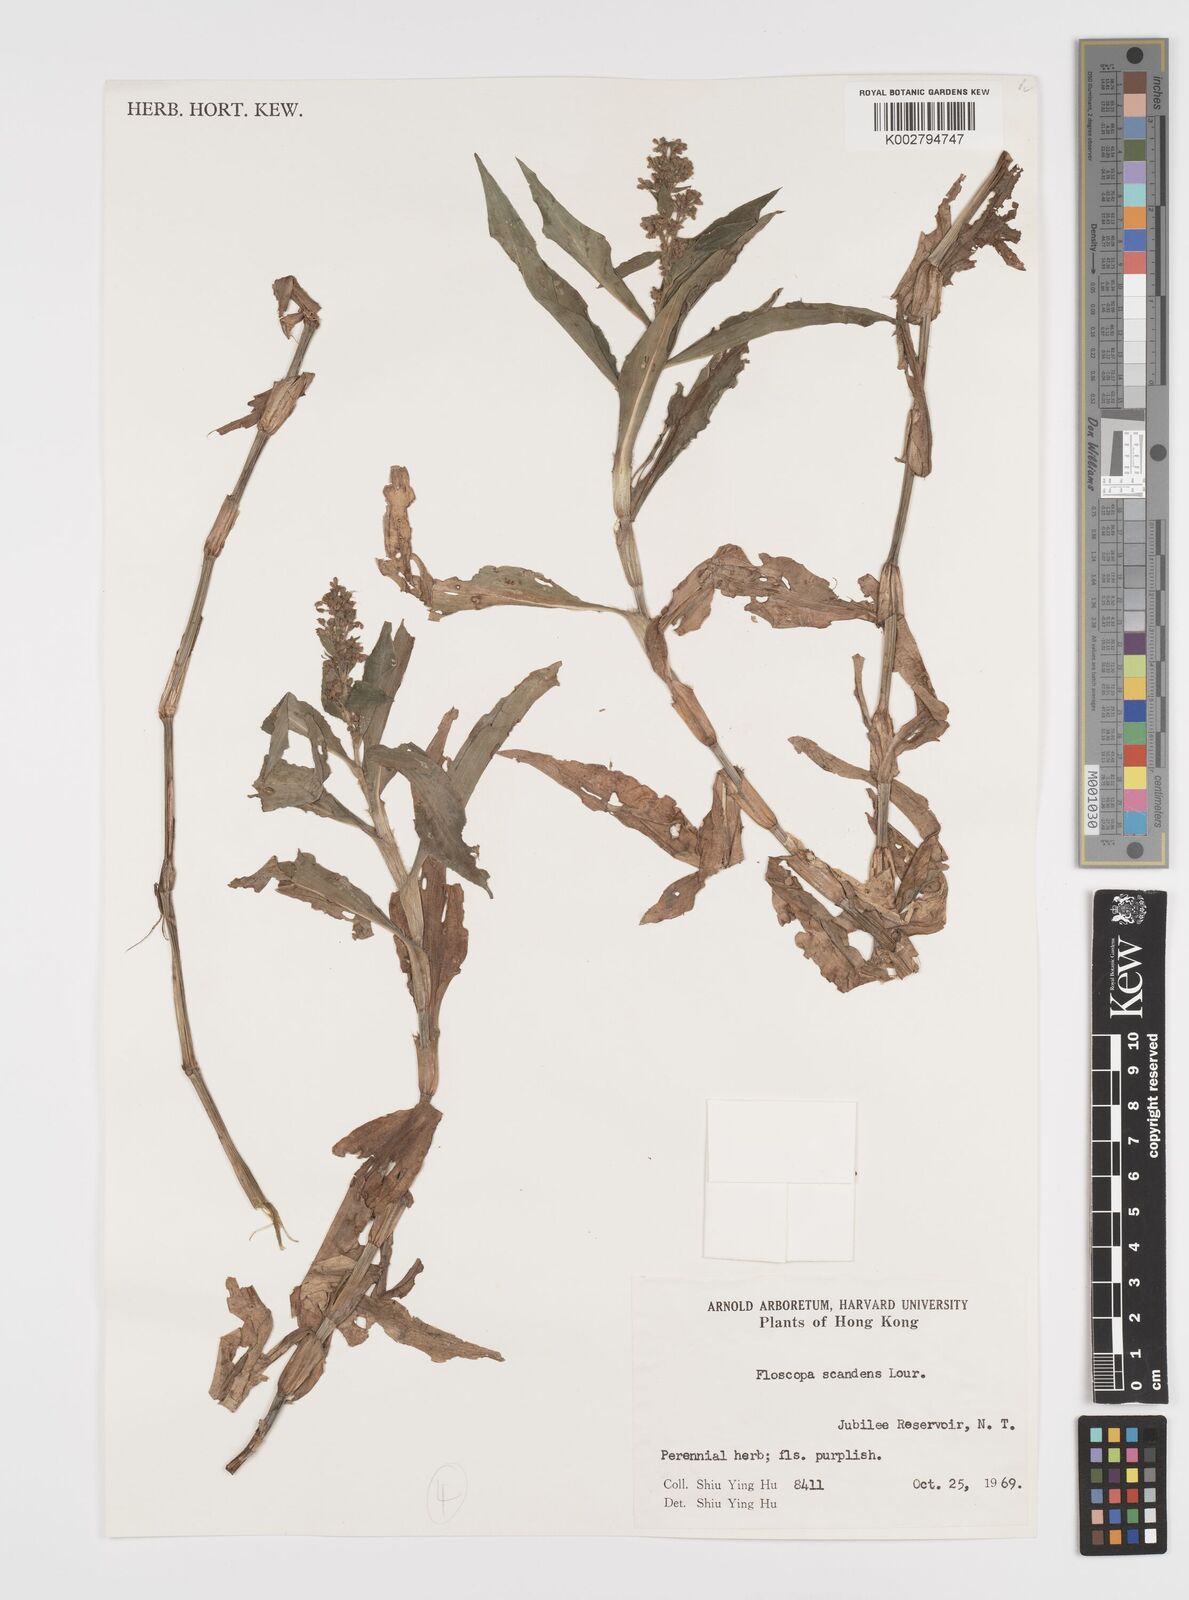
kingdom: Plantae
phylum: Tracheophyta
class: Liliopsida
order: Commelinales
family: Commelinaceae
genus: Floscopa
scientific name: Floscopa scandens
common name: Climbing flower cup
